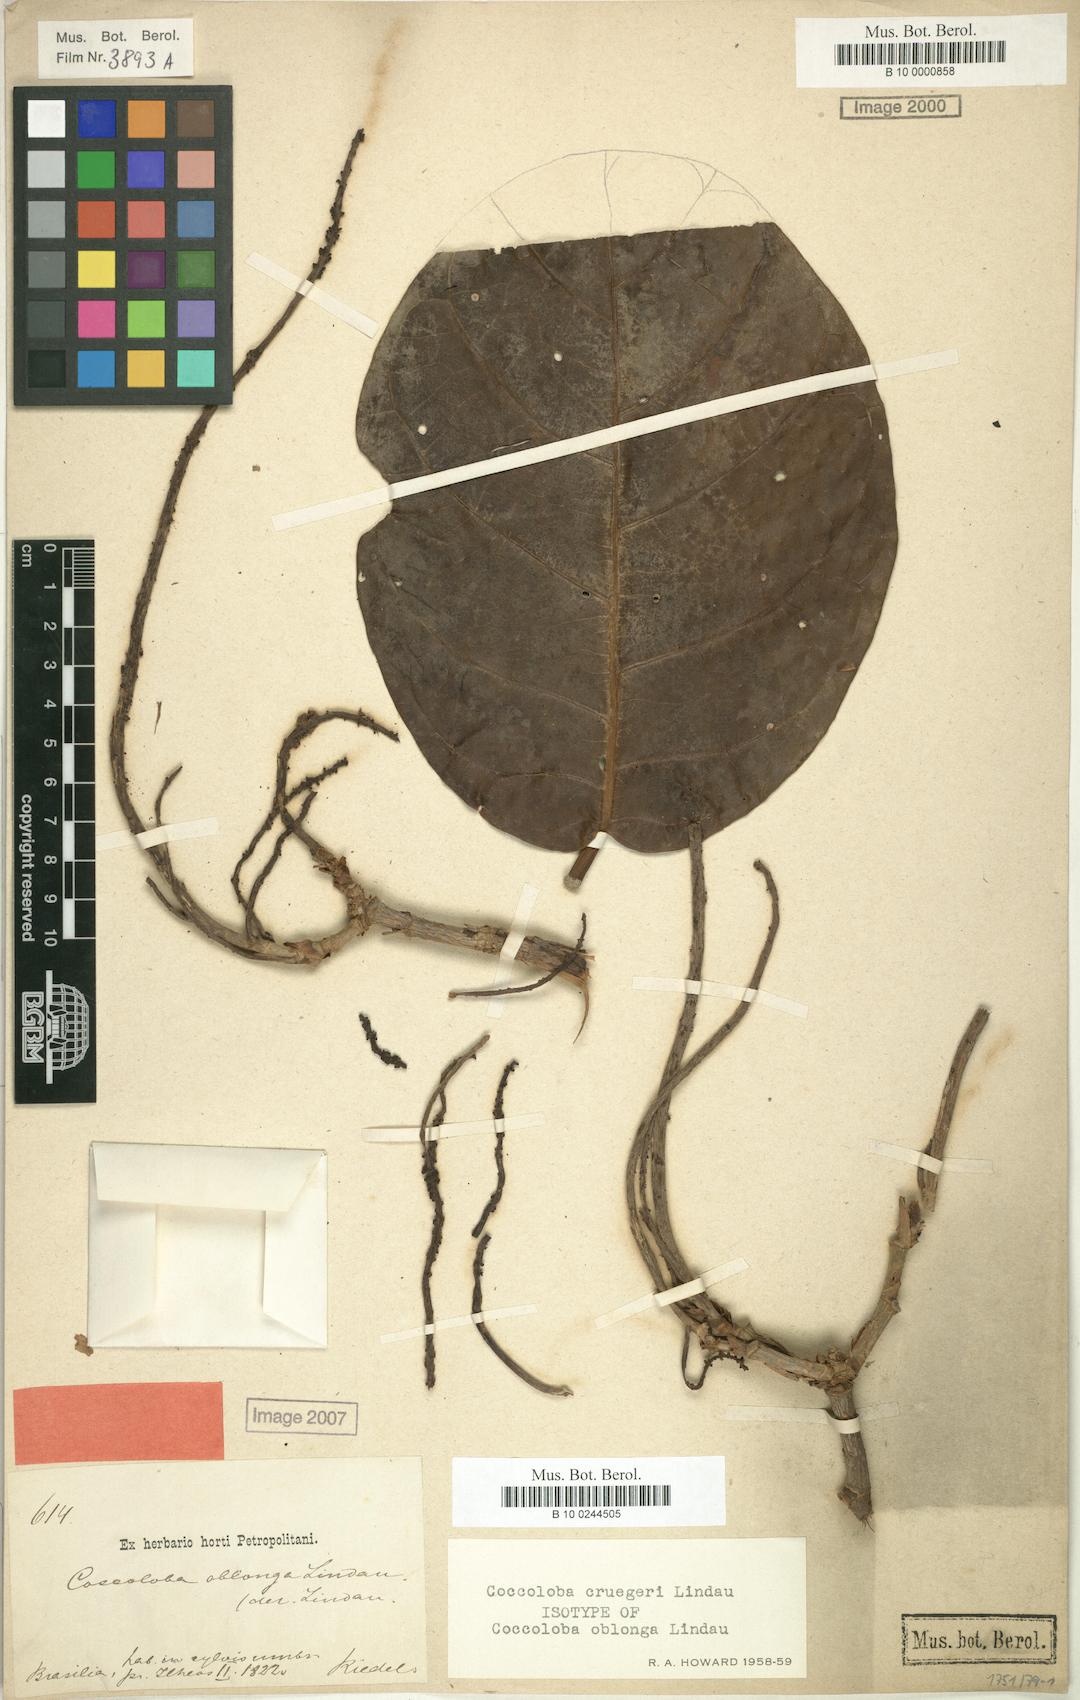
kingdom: Plantae
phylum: Tracheophyta
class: Magnoliopsida
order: Caryophyllales
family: Polygonaceae
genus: Coccoloba
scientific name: Coccoloba cruegeri
